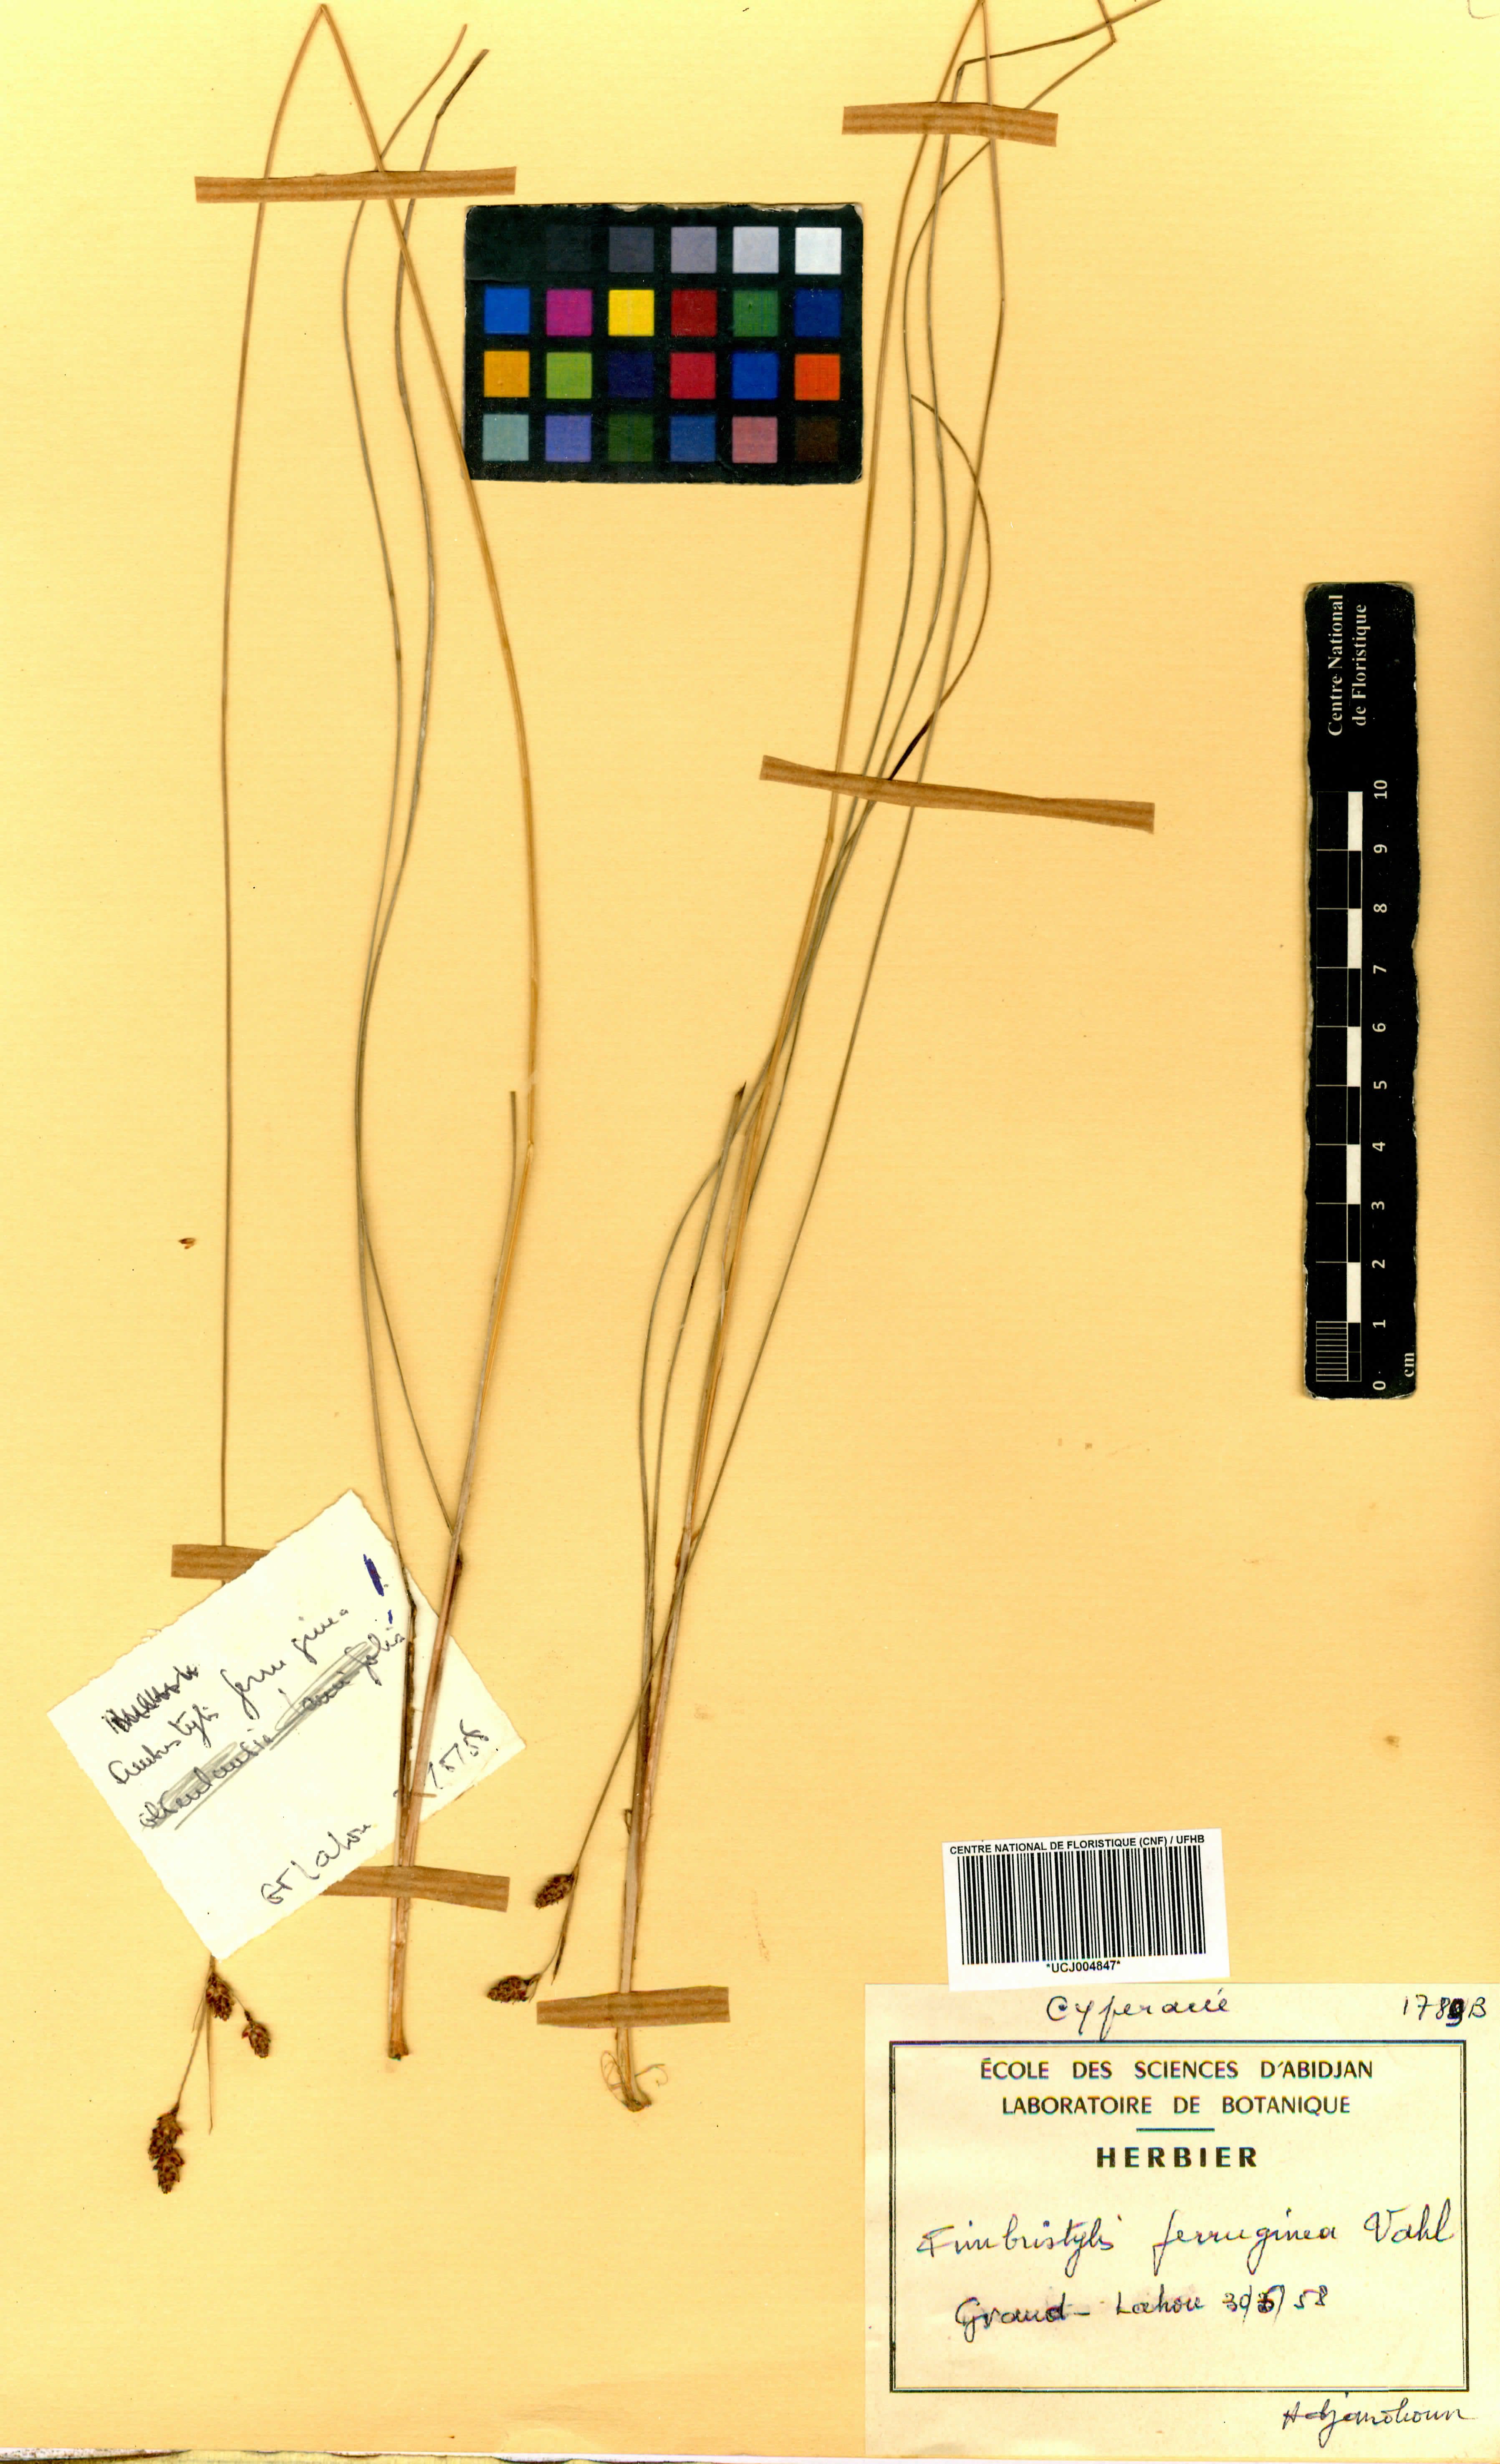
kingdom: Plantae
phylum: Tracheophyta
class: Liliopsida
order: Poales
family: Cyperaceae
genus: Fimbristylis
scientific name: Fimbristylis ferruginea
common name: West indian fimbry
